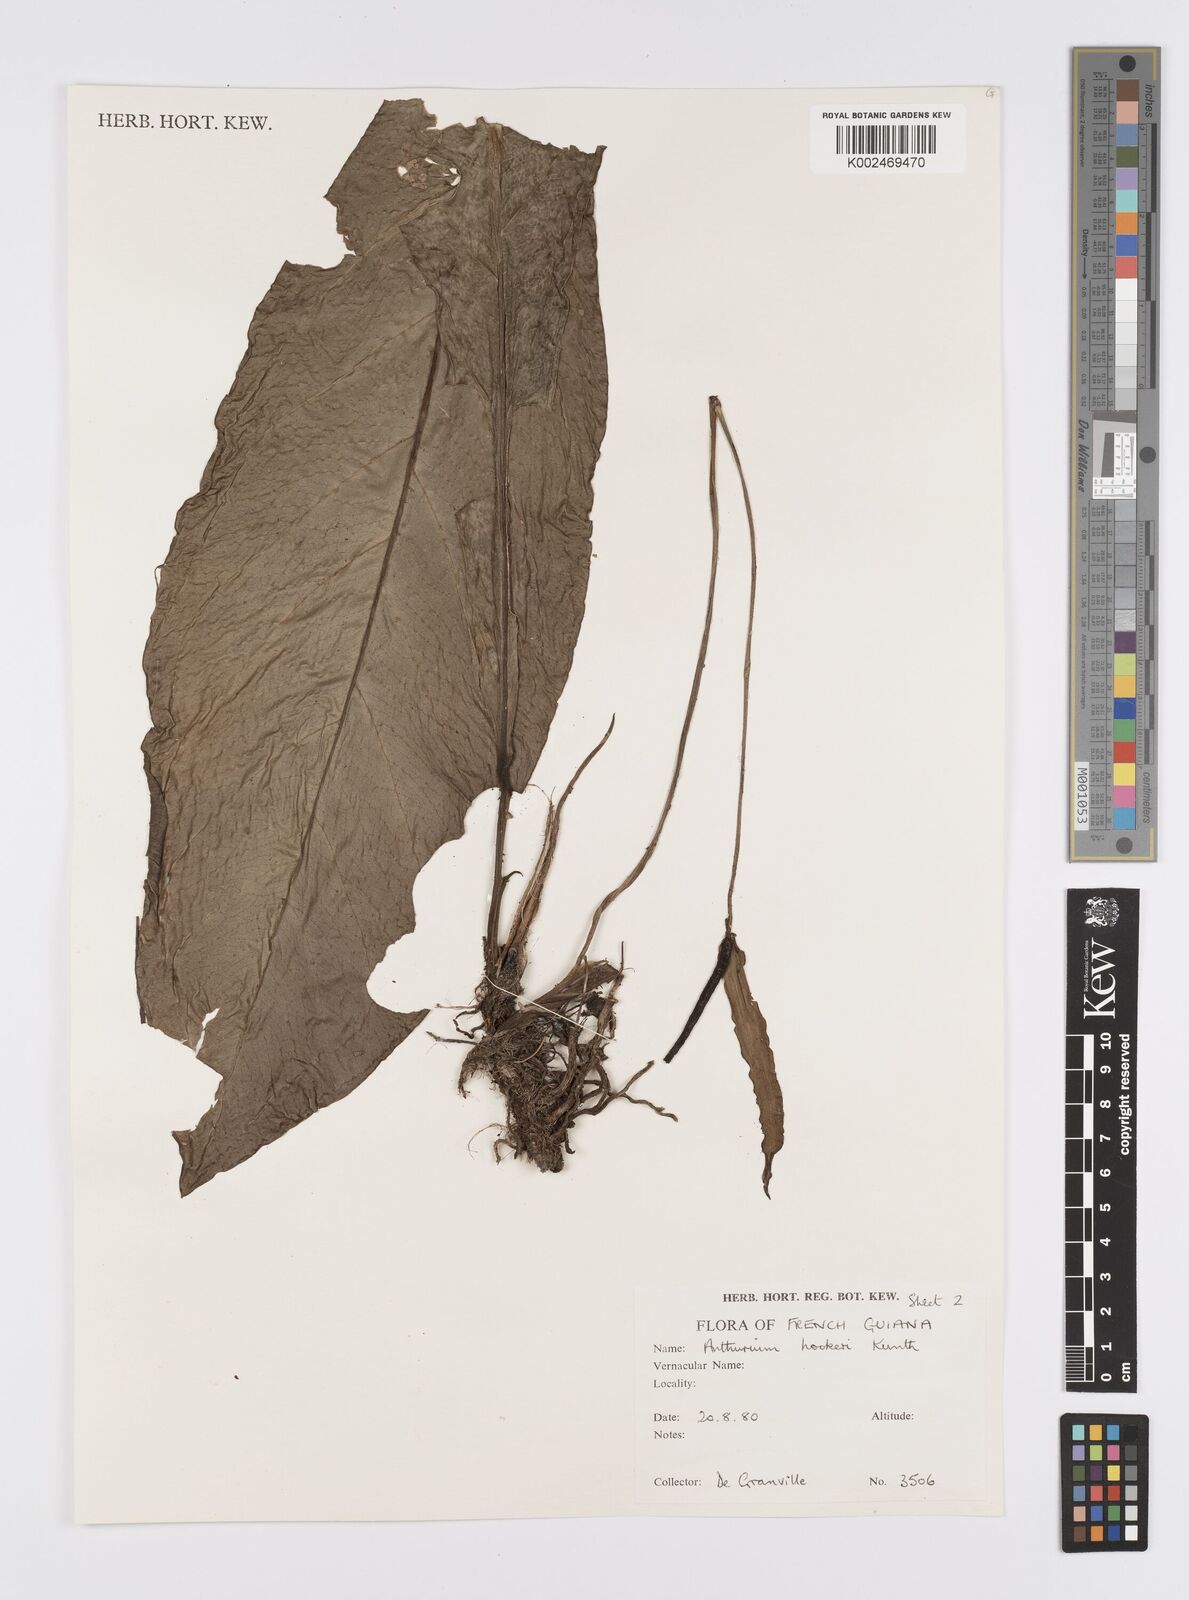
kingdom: Plantae
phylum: Tracheophyta
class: Liliopsida
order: Alismatales
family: Araceae
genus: Anthurium
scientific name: Anthurium hookeri
